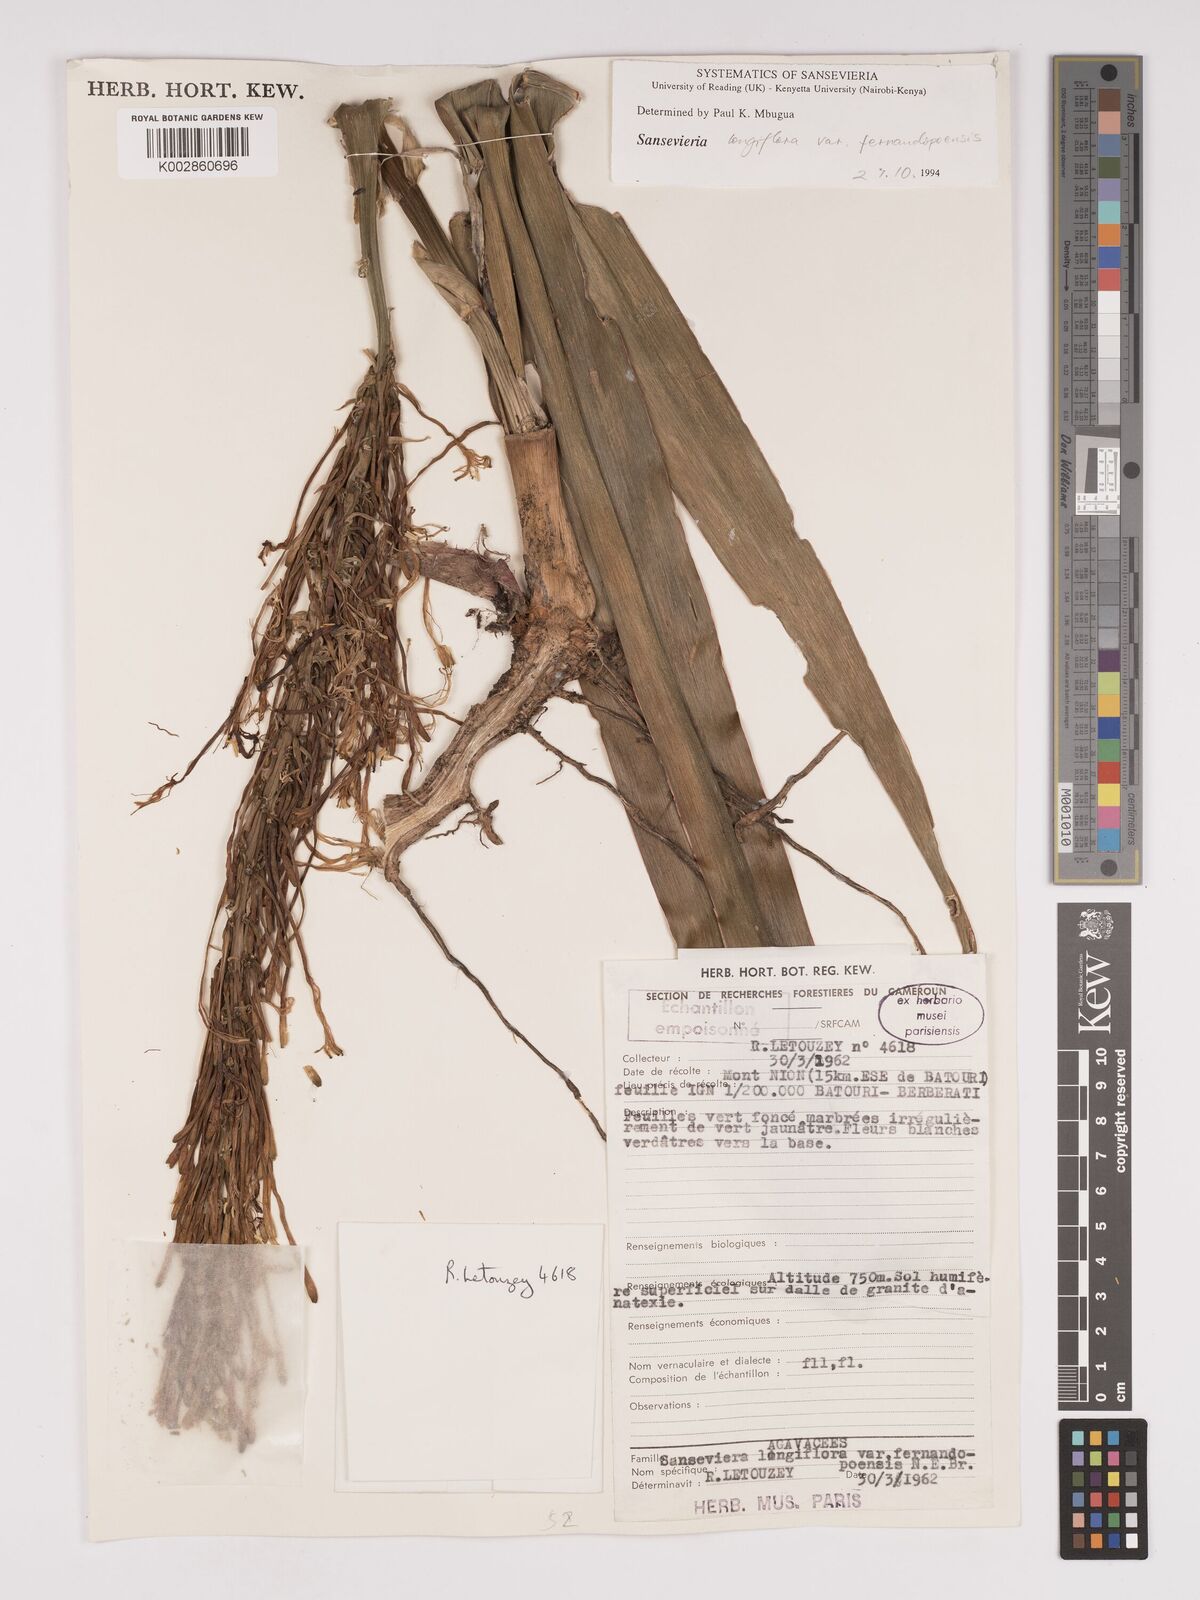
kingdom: Plantae
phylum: Tracheophyta
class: Liliopsida
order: Asparagales
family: Asparagaceae
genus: Dracaena
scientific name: Dracaena longiflora
